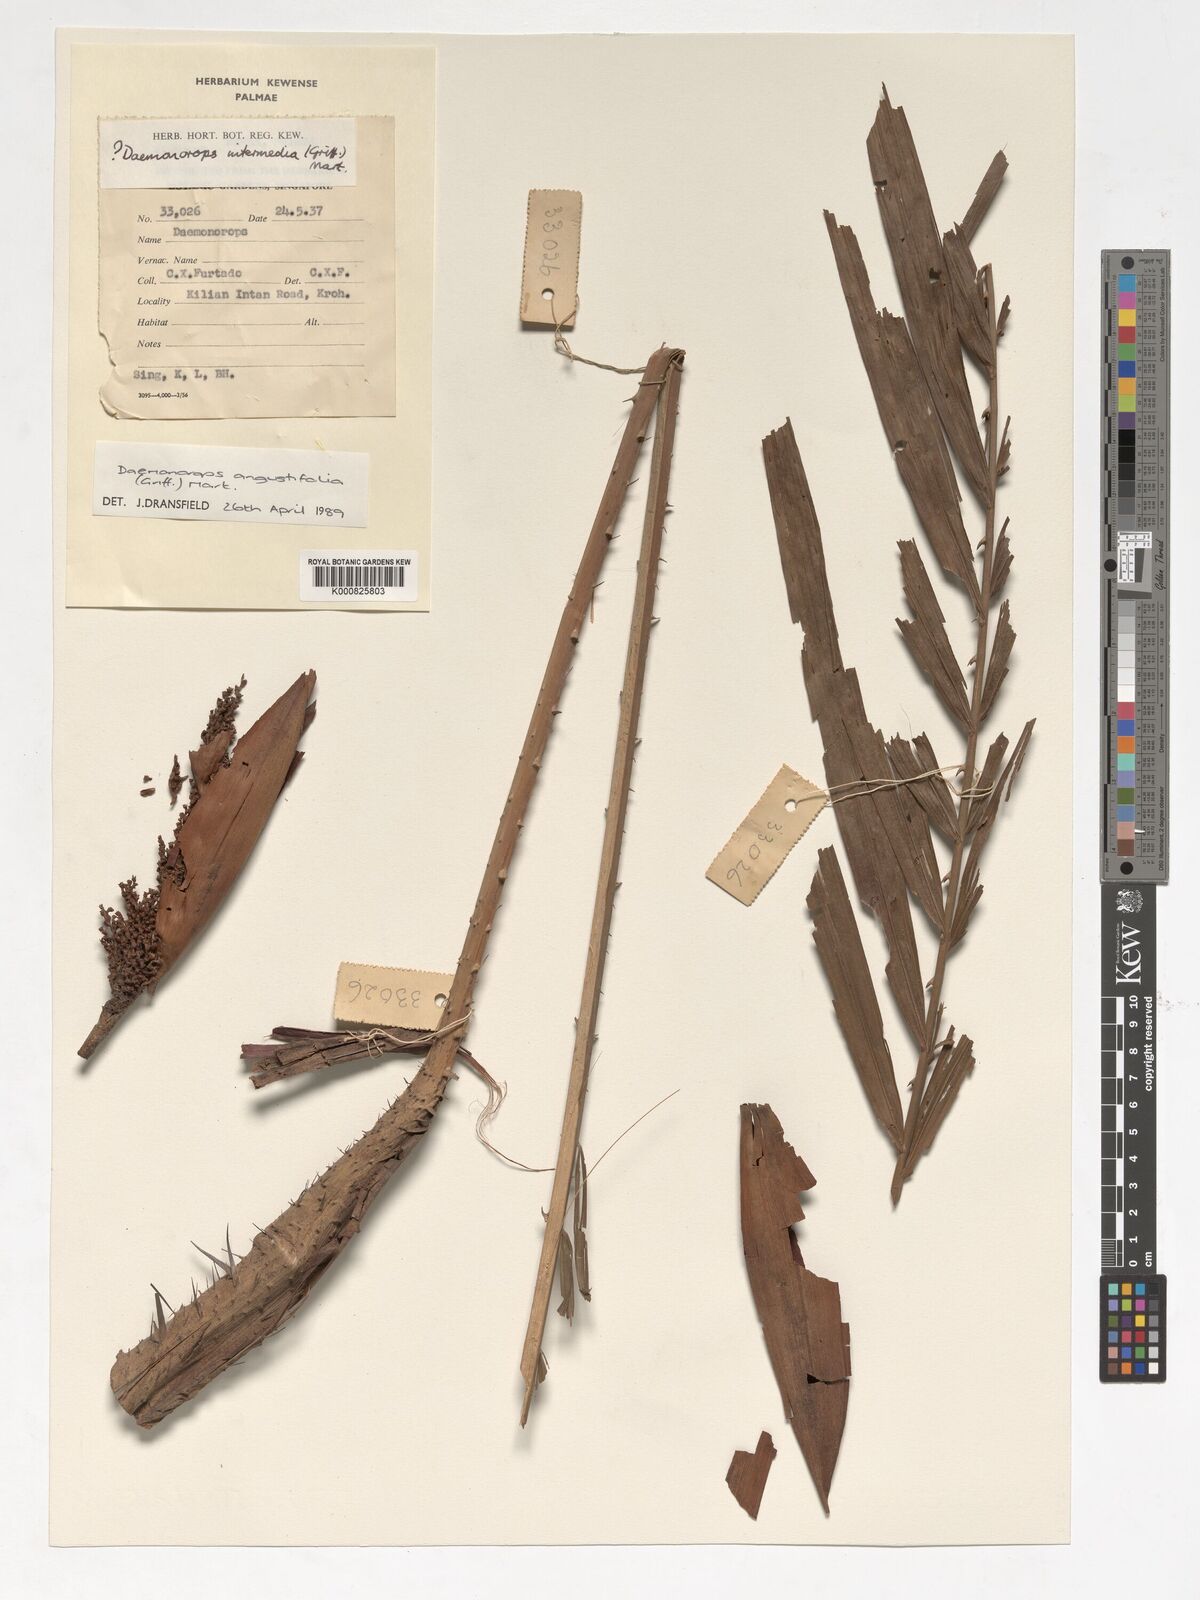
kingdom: Plantae
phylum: Tracheophyta
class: Liliopsida
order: Arecales
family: Arecaceae
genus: Calamus
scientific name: Calamus melanochaetes
